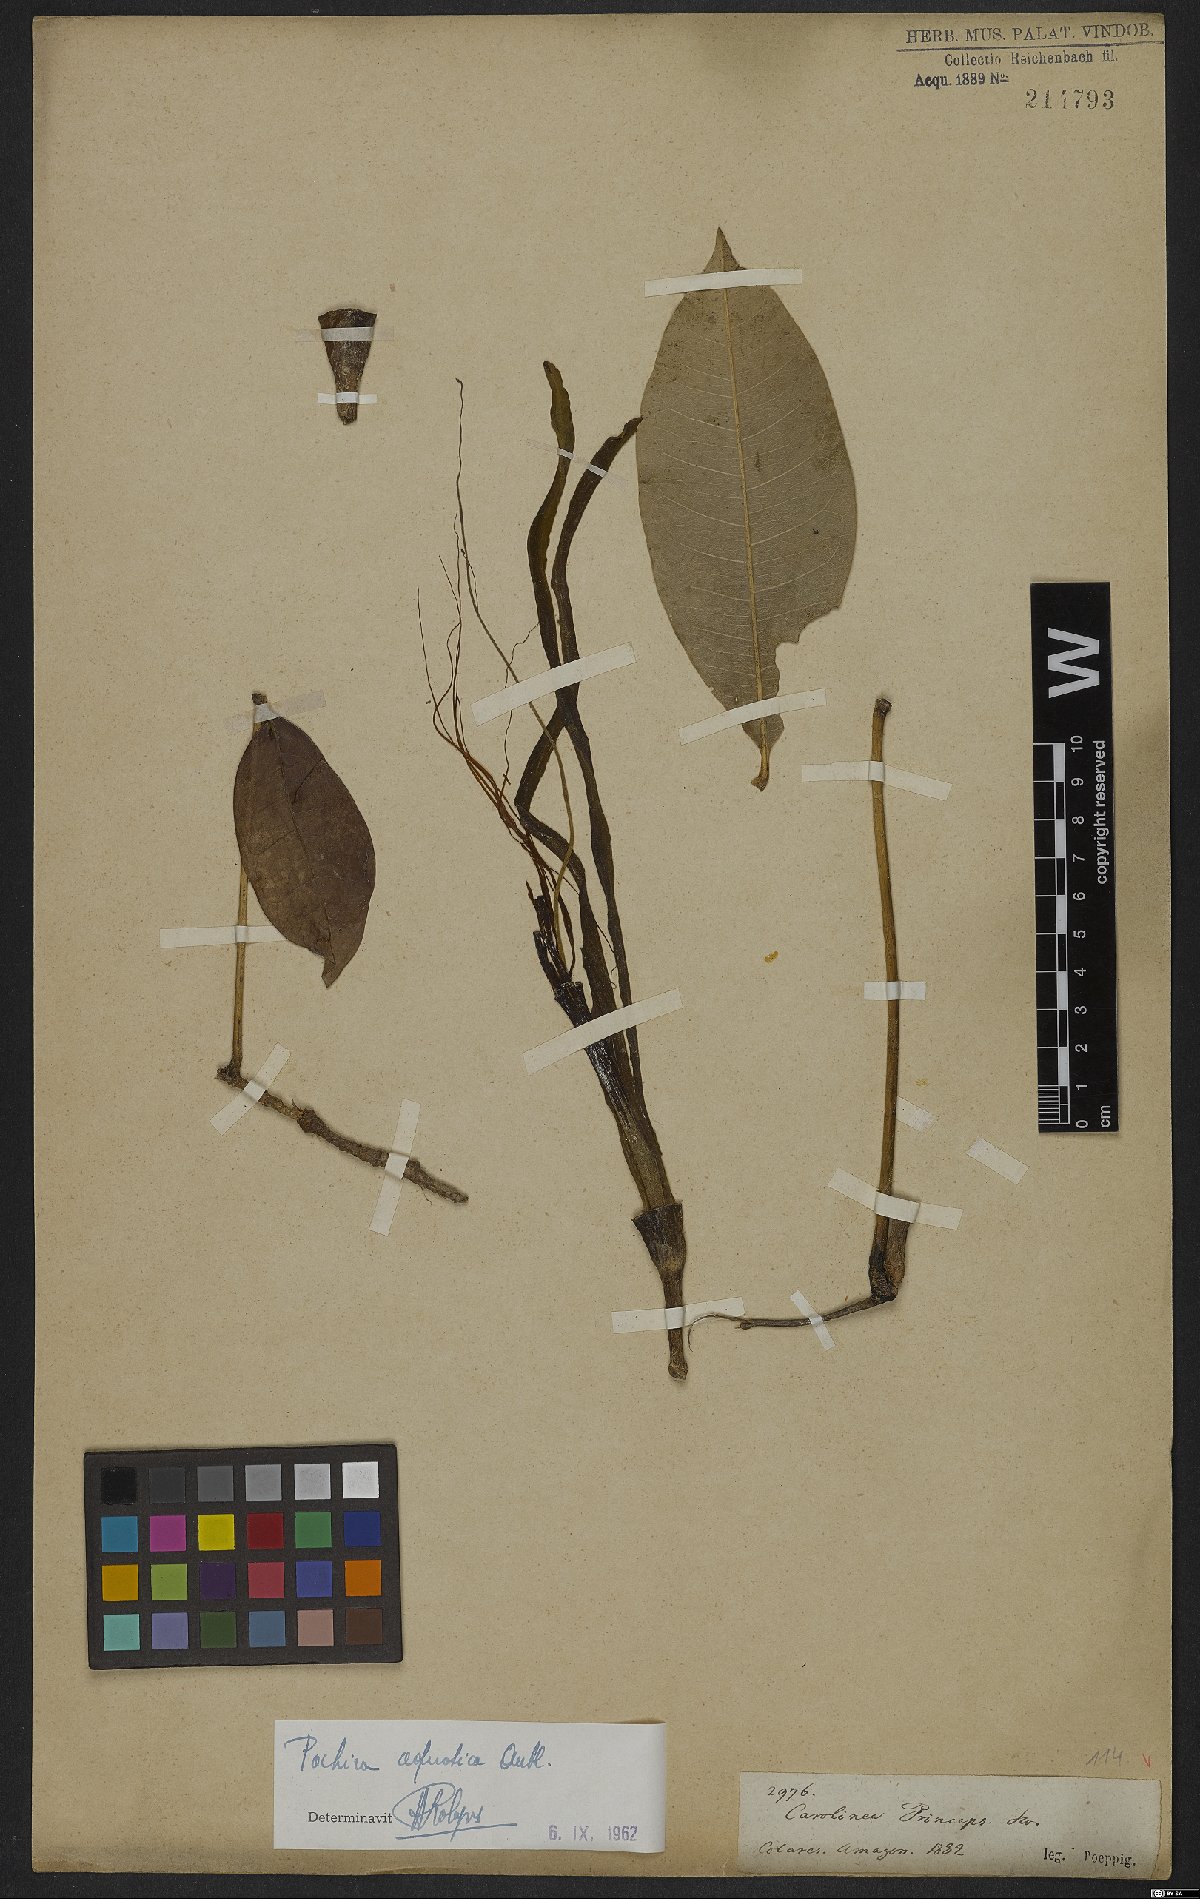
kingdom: Plantae
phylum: Tracheophyta
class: Magnoliopsida
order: Malvales
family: Malvaceae
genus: Pachira
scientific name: Pachira aquatica
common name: Provision-tree
